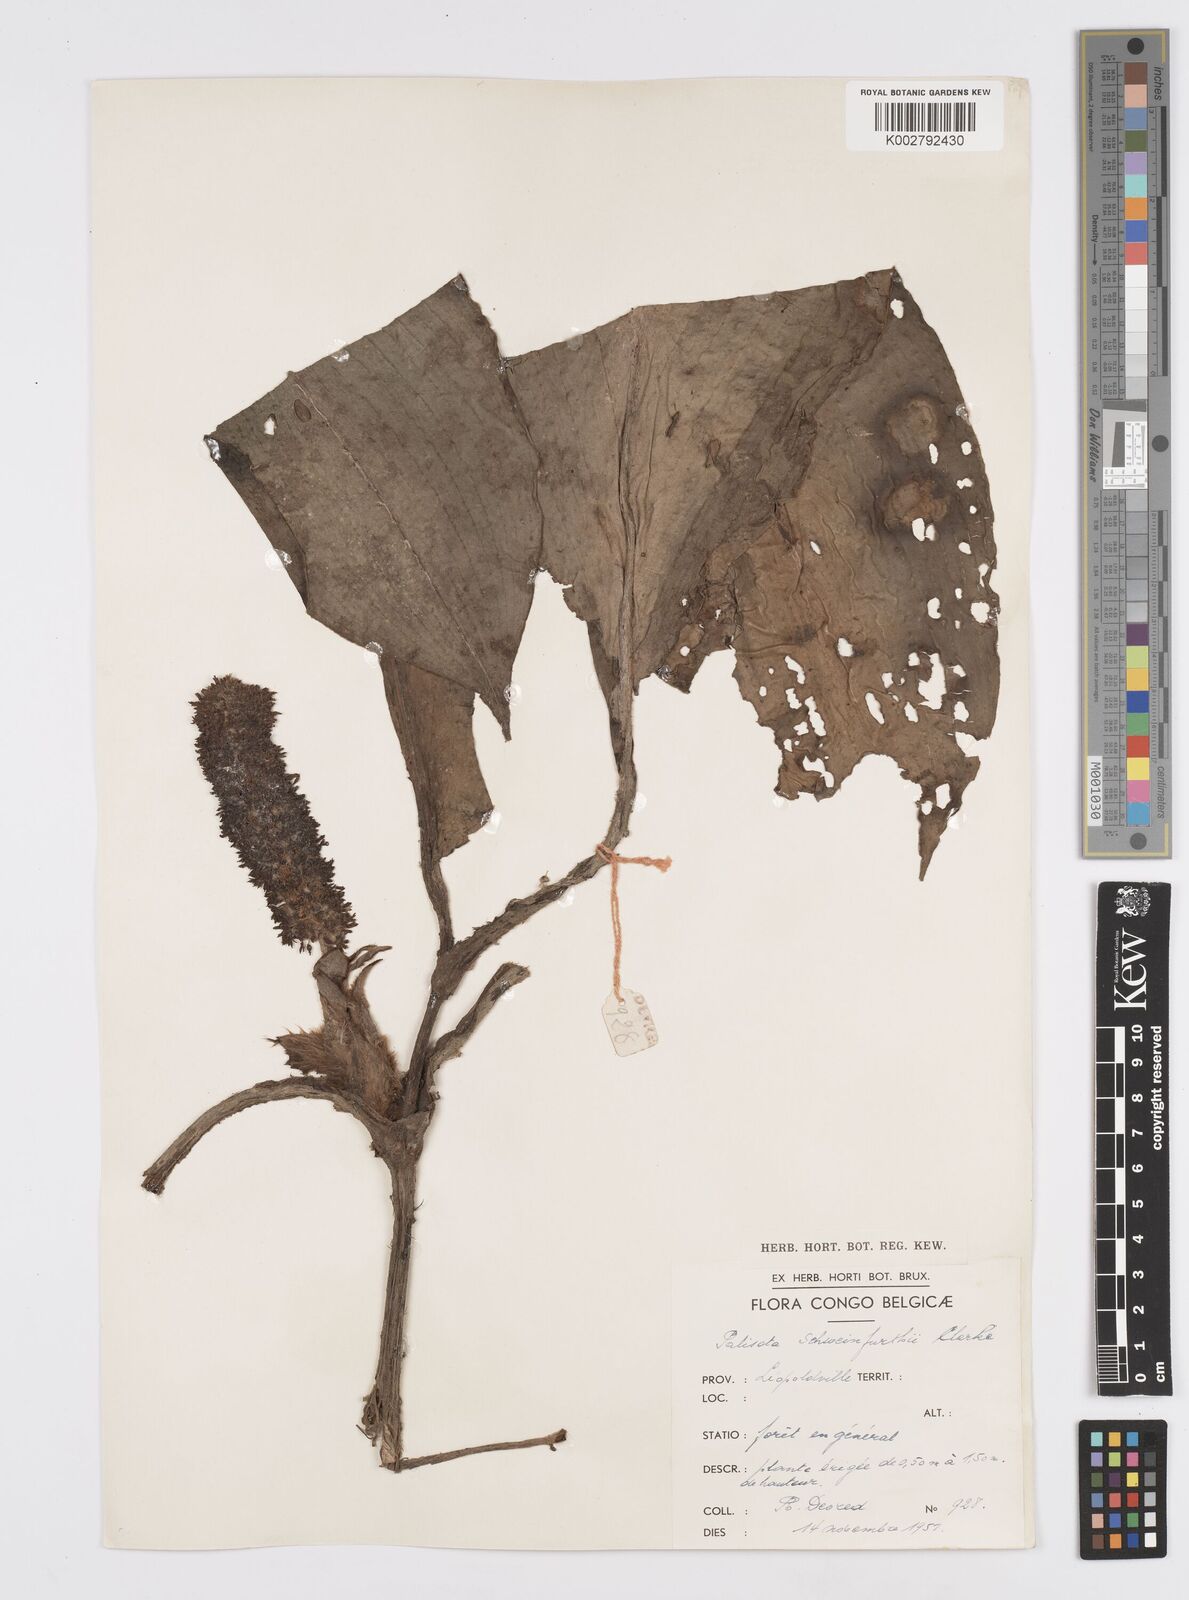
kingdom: Plantae
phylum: Tracheophyta
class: Liliopsida
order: Commelinales
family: Commelinaceae
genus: Palisota
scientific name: Palisota schweinfurthii
